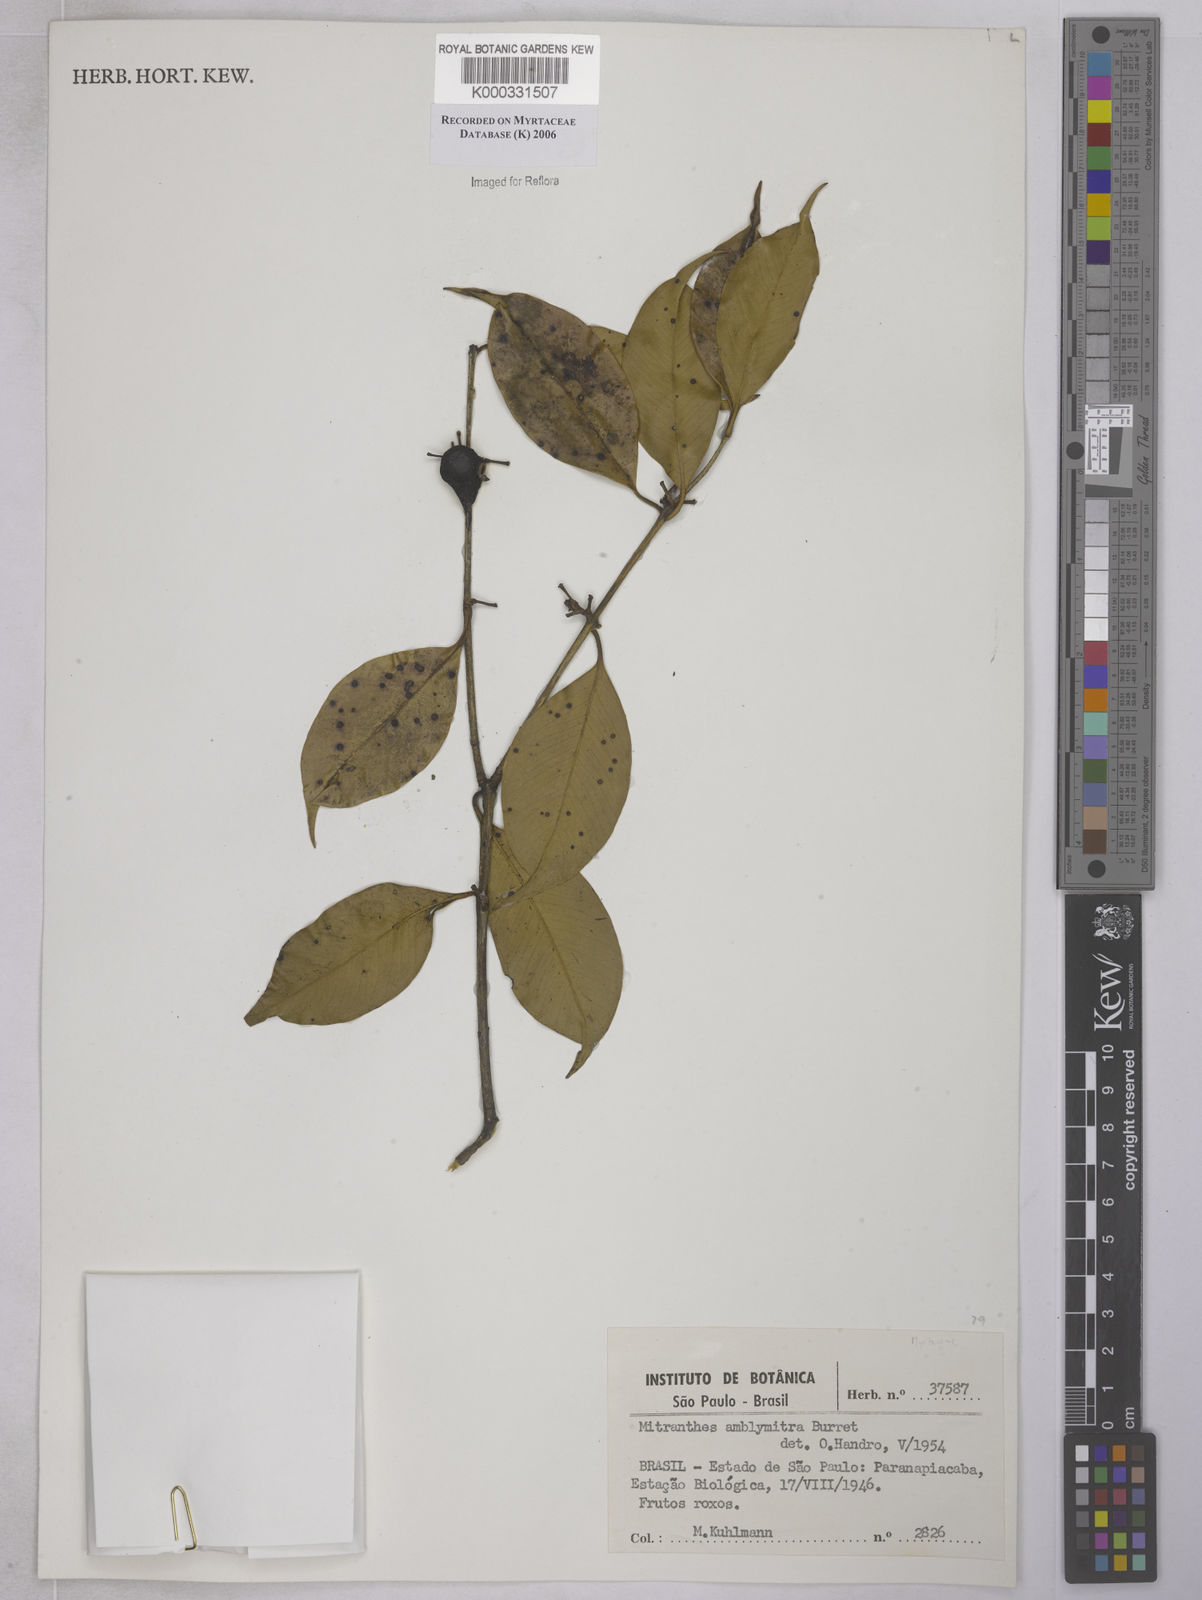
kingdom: Plantae
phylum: Tracheophyta
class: Magnoliopsida
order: Myrtales
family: Myrtaceae
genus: Neomitranthes
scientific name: Neomitranthes amblymitra
